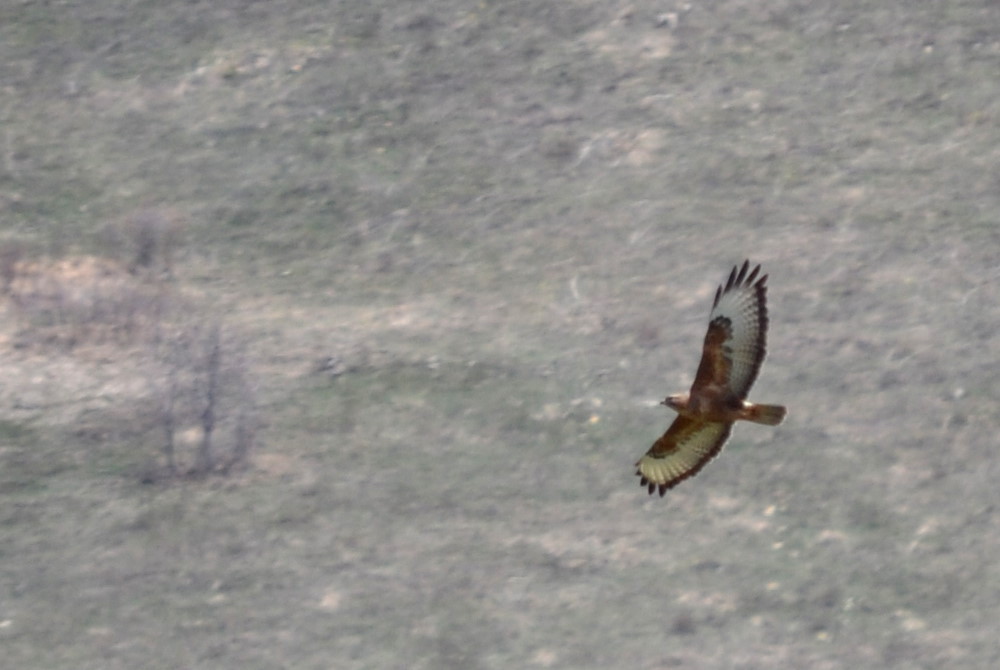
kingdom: Animalia
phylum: Chordata
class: Aves
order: Accipitriformes
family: Accipitridae
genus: Buteo
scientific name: Buteo buteo
